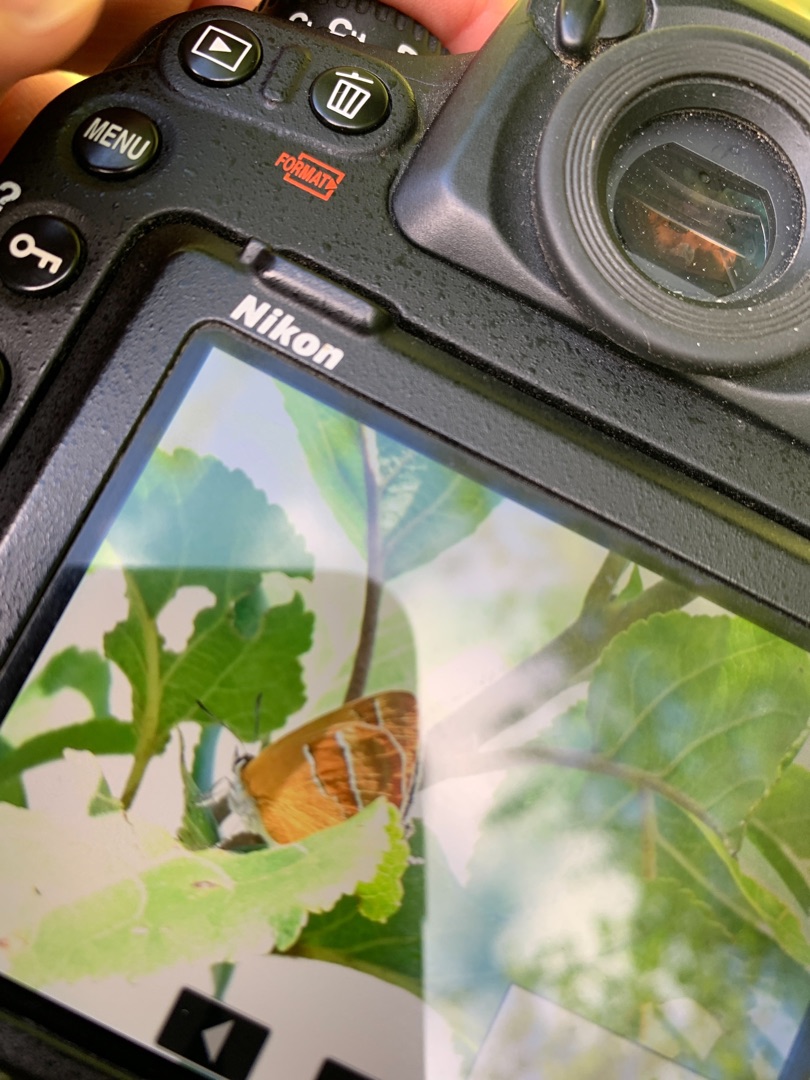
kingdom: Animalia
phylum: Arthropoda
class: Insecta
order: Lepidoptera
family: Lycaenidae
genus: Thecla
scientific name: Thecla betulae
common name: Guldhale
